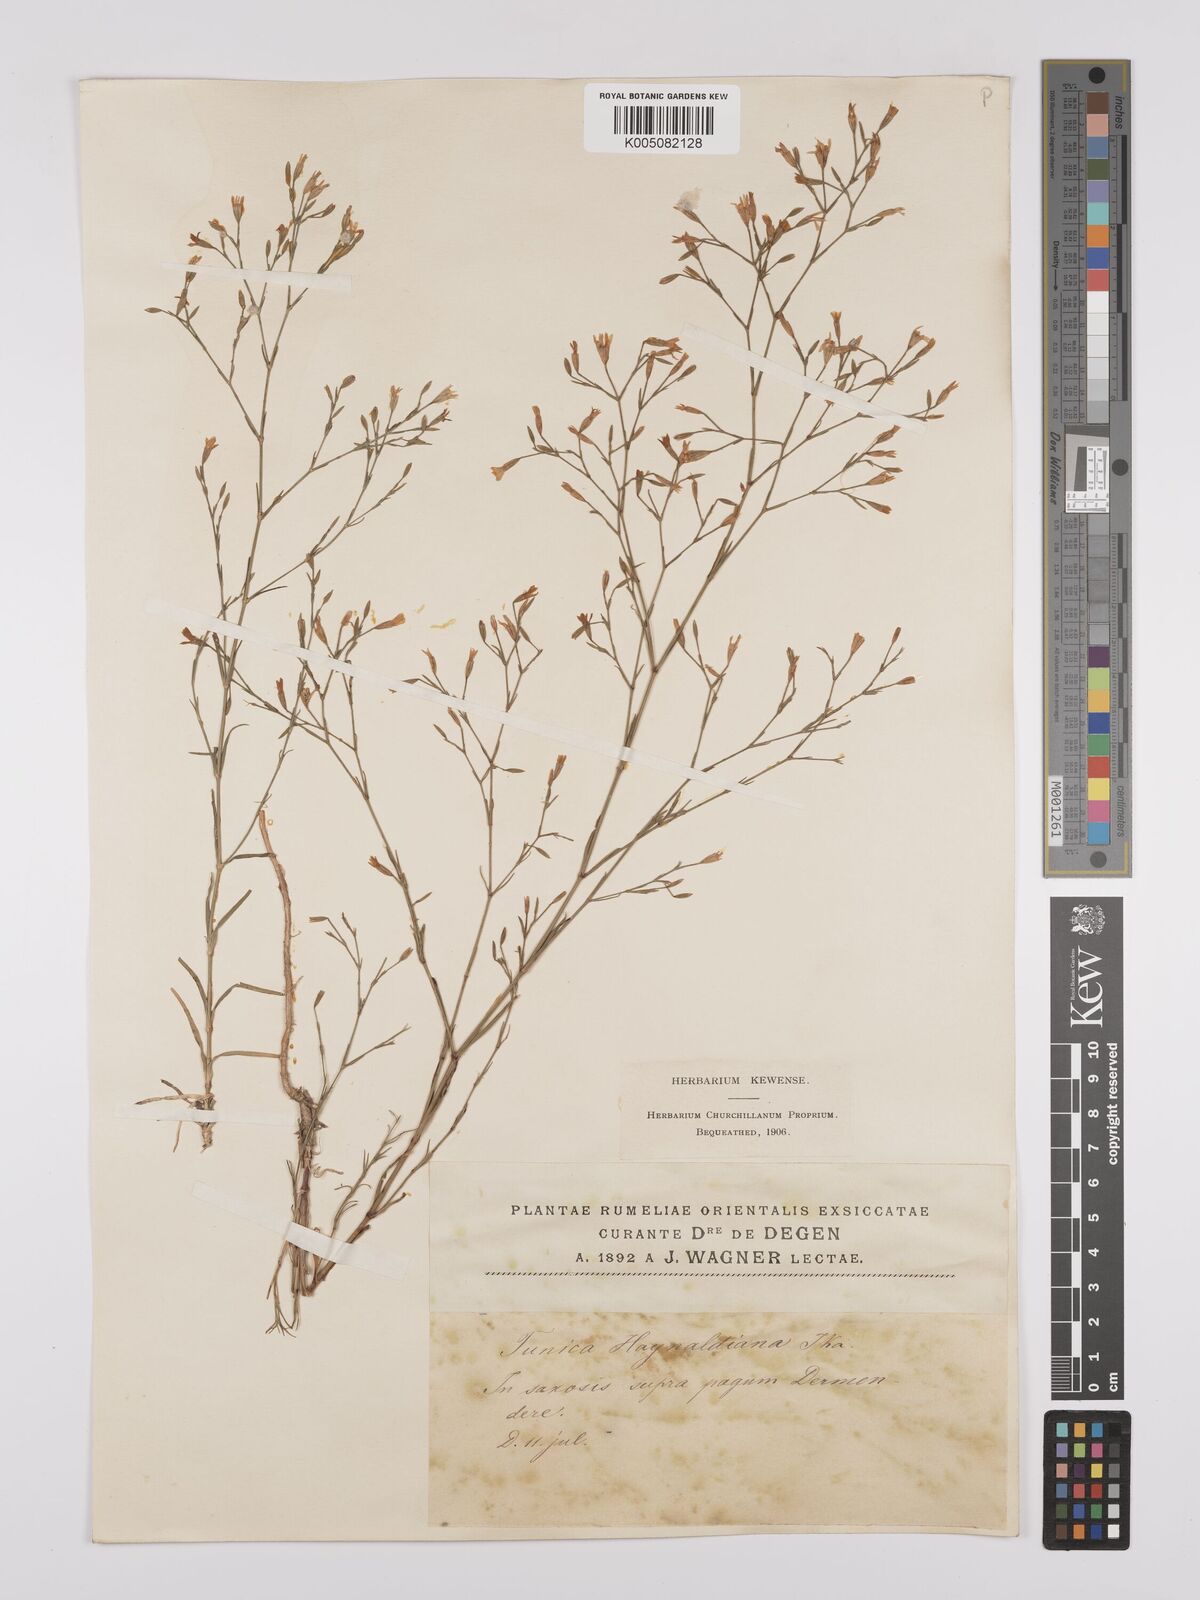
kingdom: Plantae
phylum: Tracheophyta
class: Magnoliopsida
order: Caryophyllales
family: Caryophyllaceae
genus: Dianthus
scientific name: Dianthus illyricus
